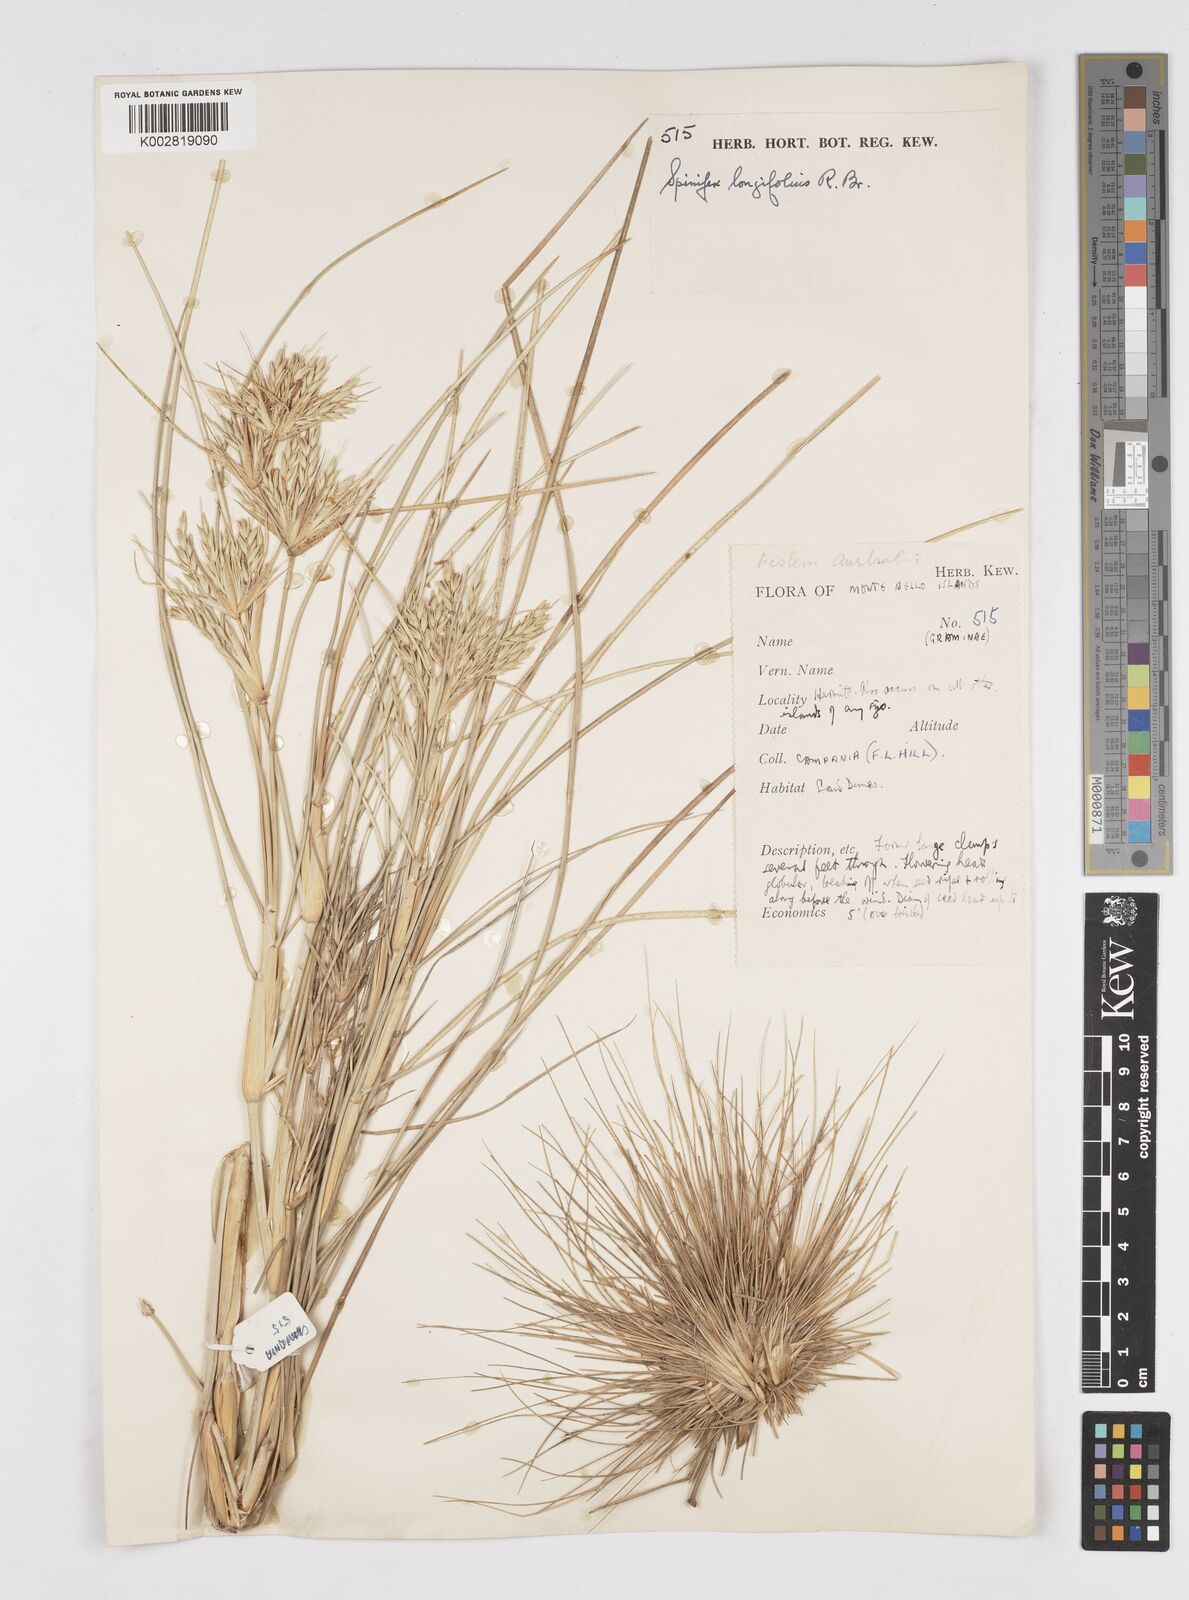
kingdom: Plantae
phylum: Tracheophyta
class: Liliopsida
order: Poales
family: Poaceae
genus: Spinifex
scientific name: Spinifex longifolius
